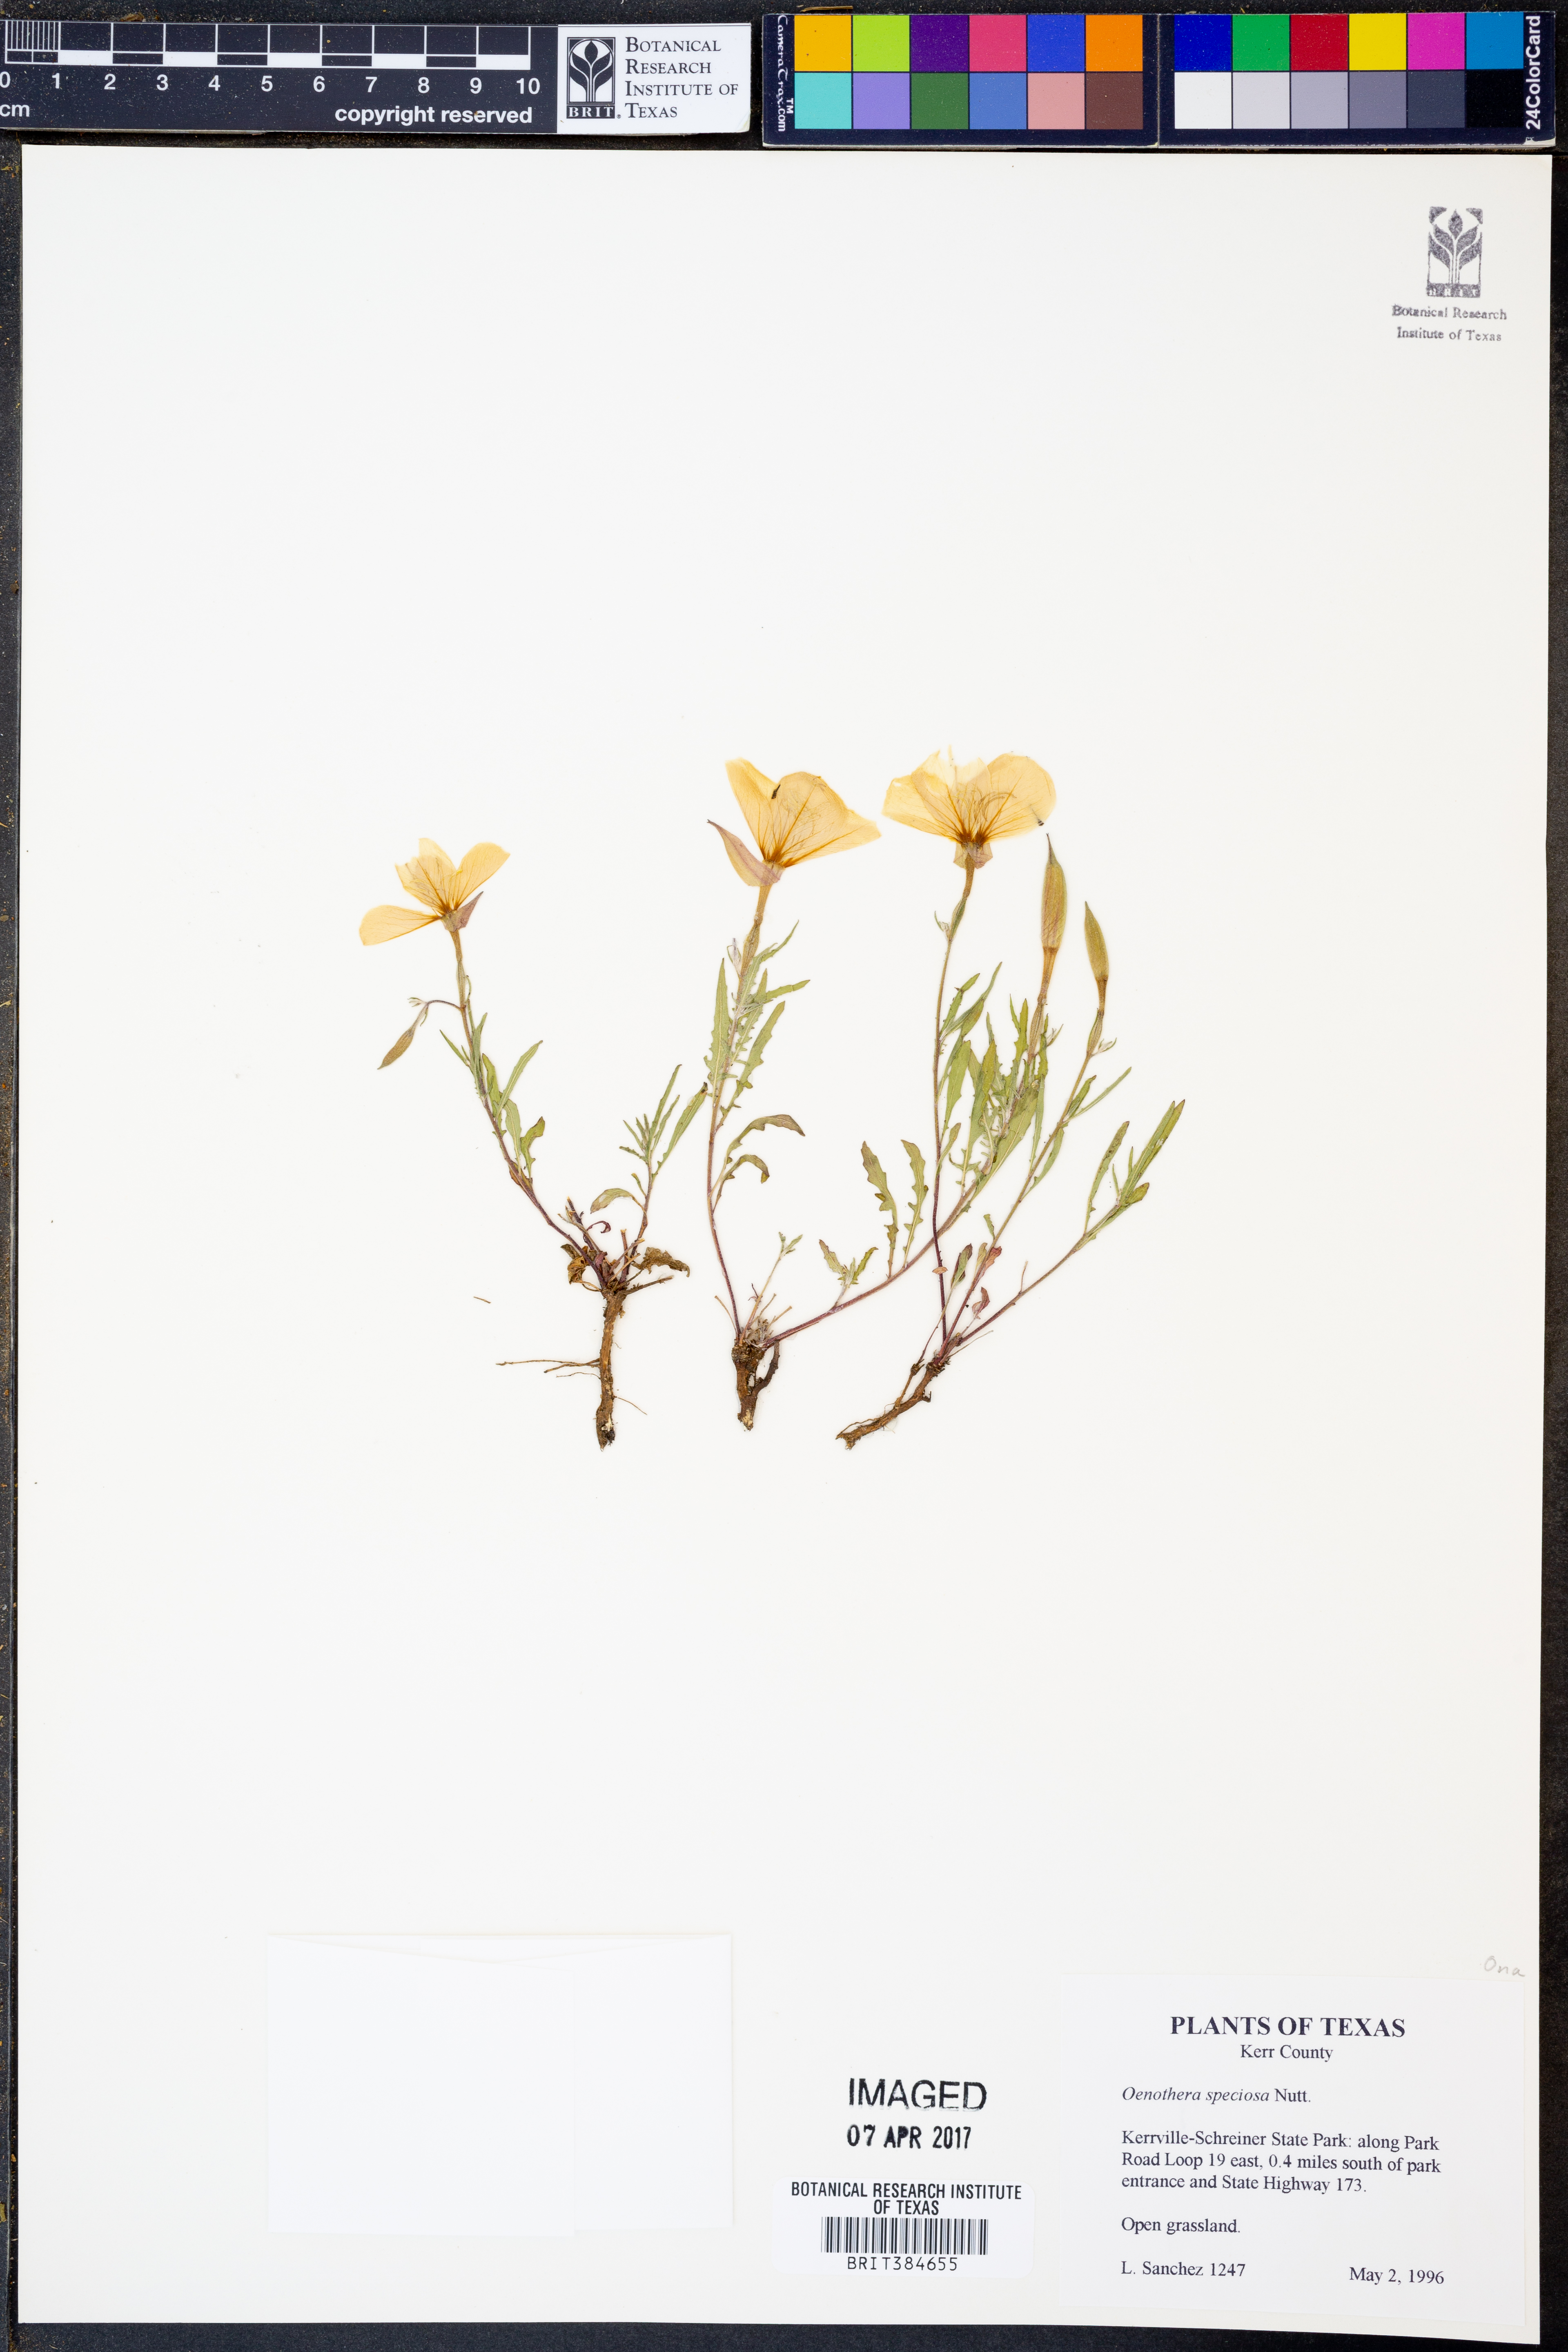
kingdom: Plantae
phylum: Tracheophyta
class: Magnoliopsida
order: Myrtales
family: Onagraceae
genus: Oenothera
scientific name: Oenothera speciosa
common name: White evening-primrose
